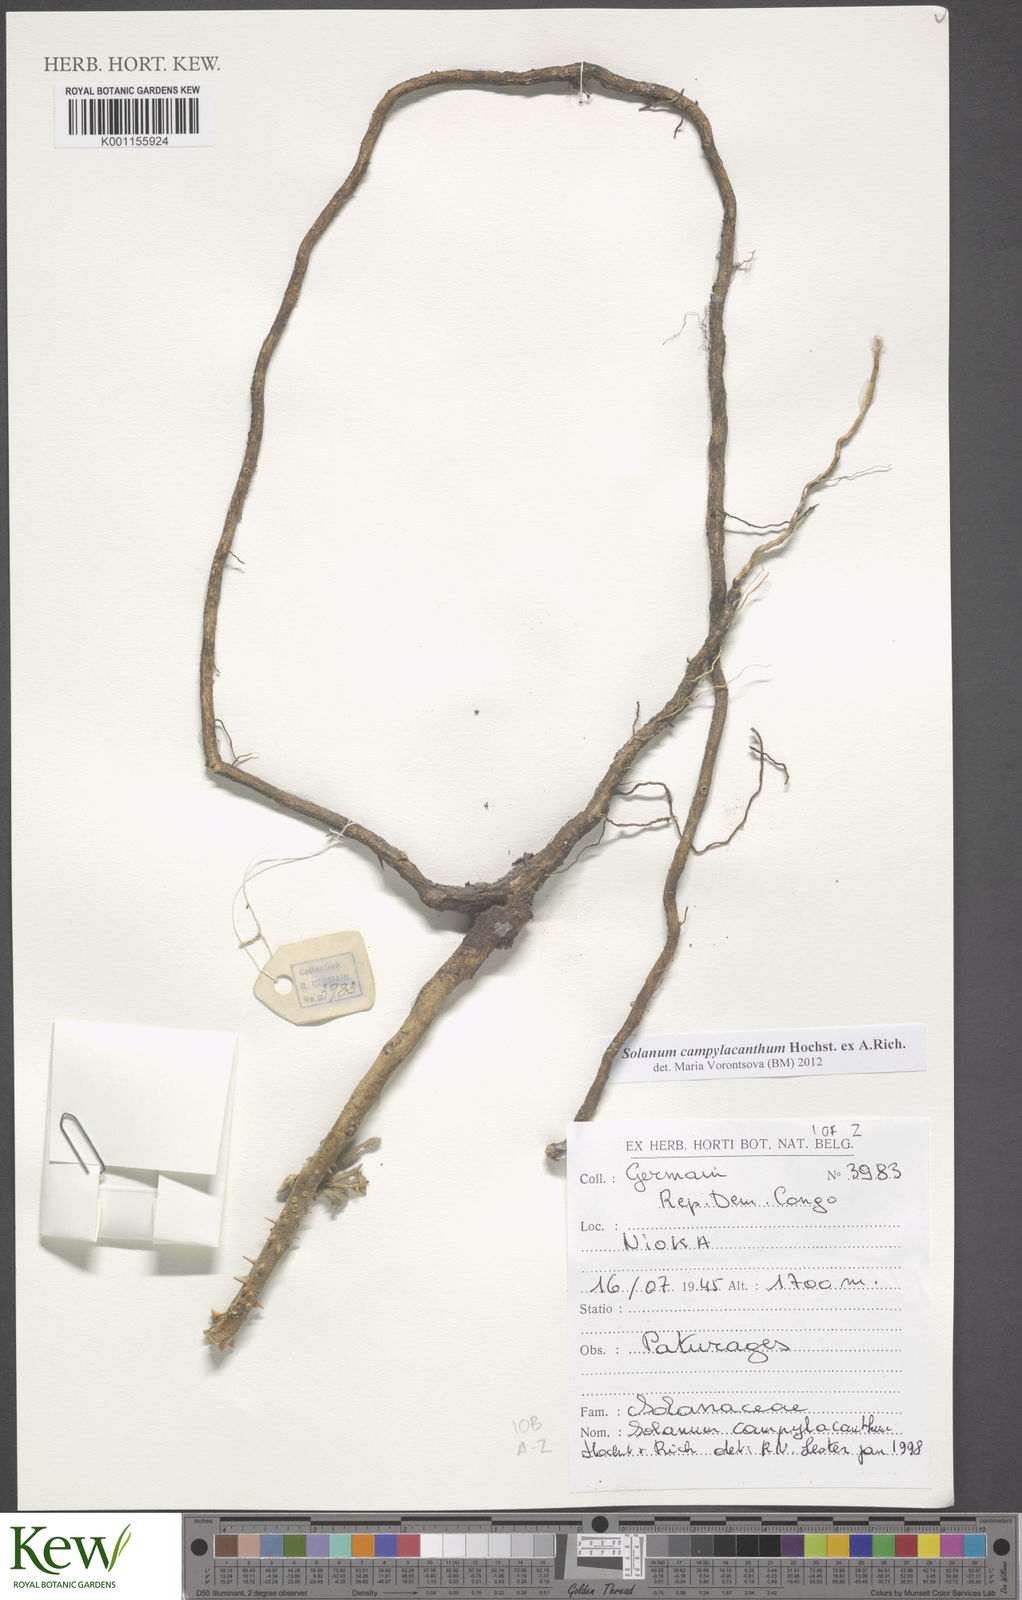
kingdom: Plantae
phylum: Tracheophyta
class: Magnoliopsida
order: Solanales
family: Solanaceae
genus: Solanum
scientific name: Solanum campylacanthum
